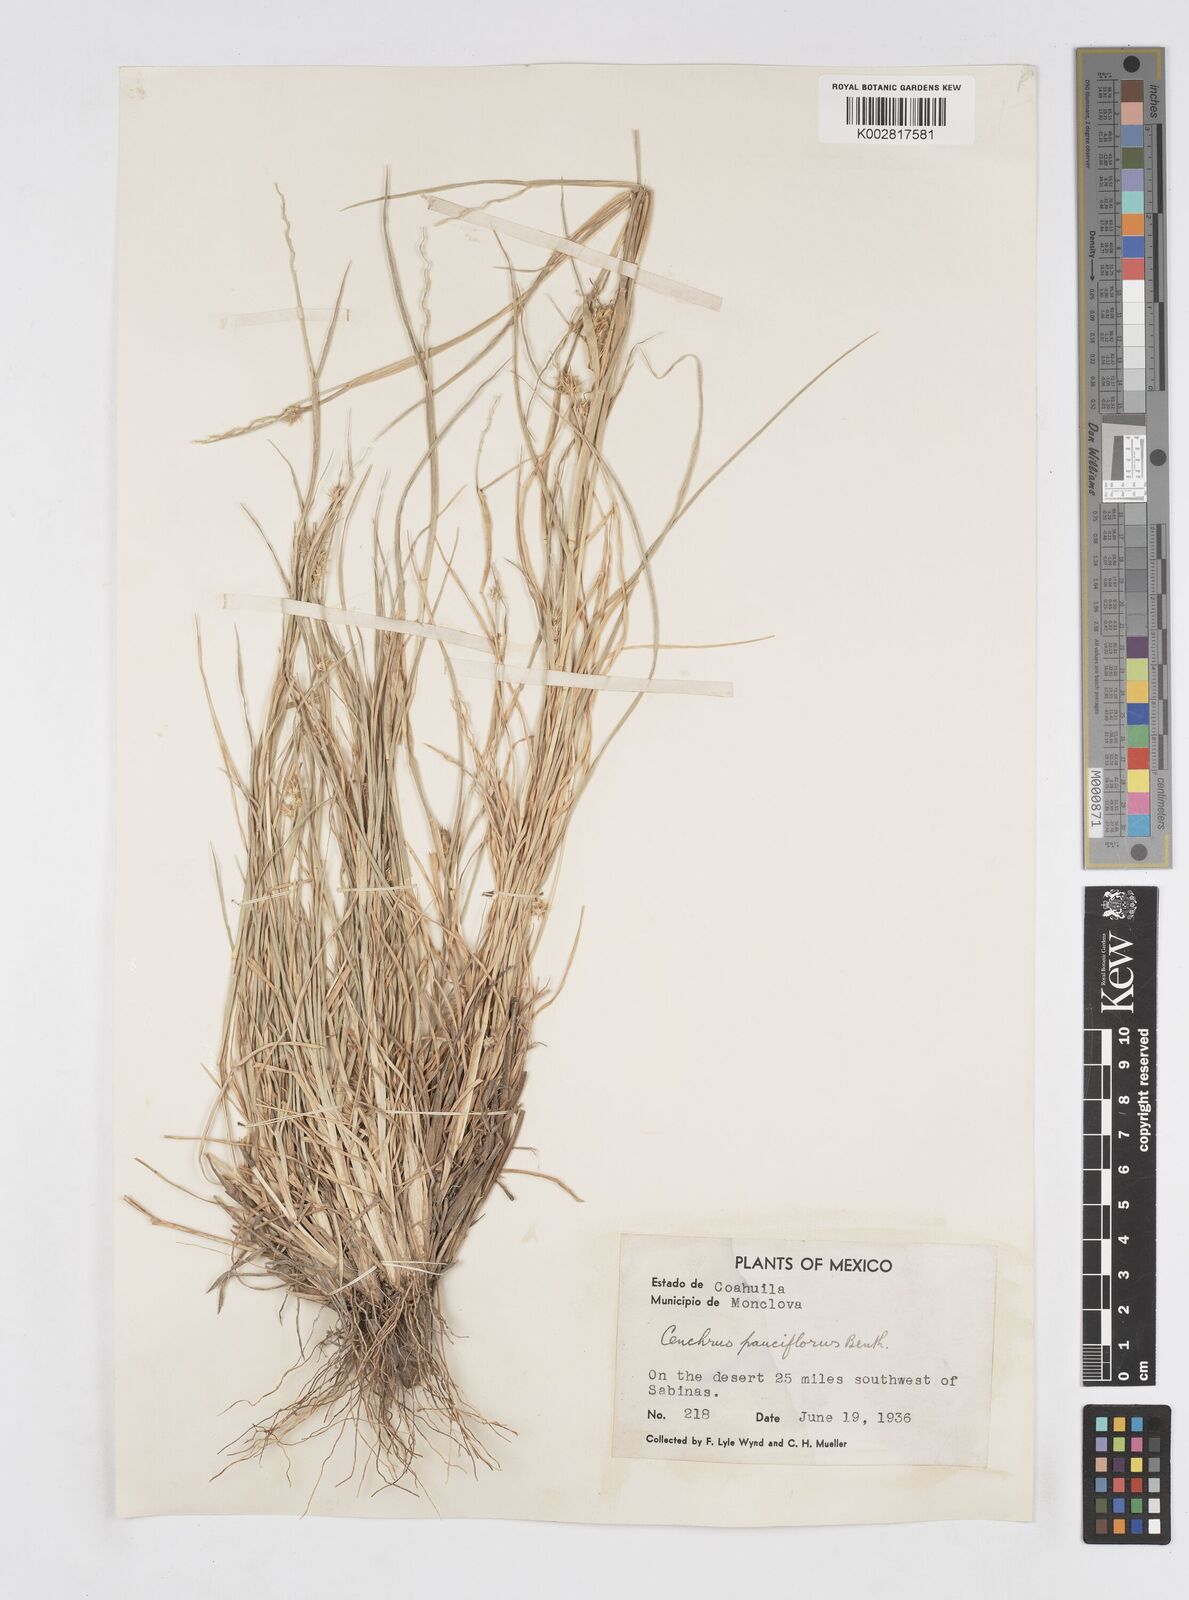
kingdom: Plantae
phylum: Tracheophyta
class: Liliopsida
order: Poales
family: Poaceae
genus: Cenchrus
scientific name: Cenchrus spinifex
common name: Coast sandbur
